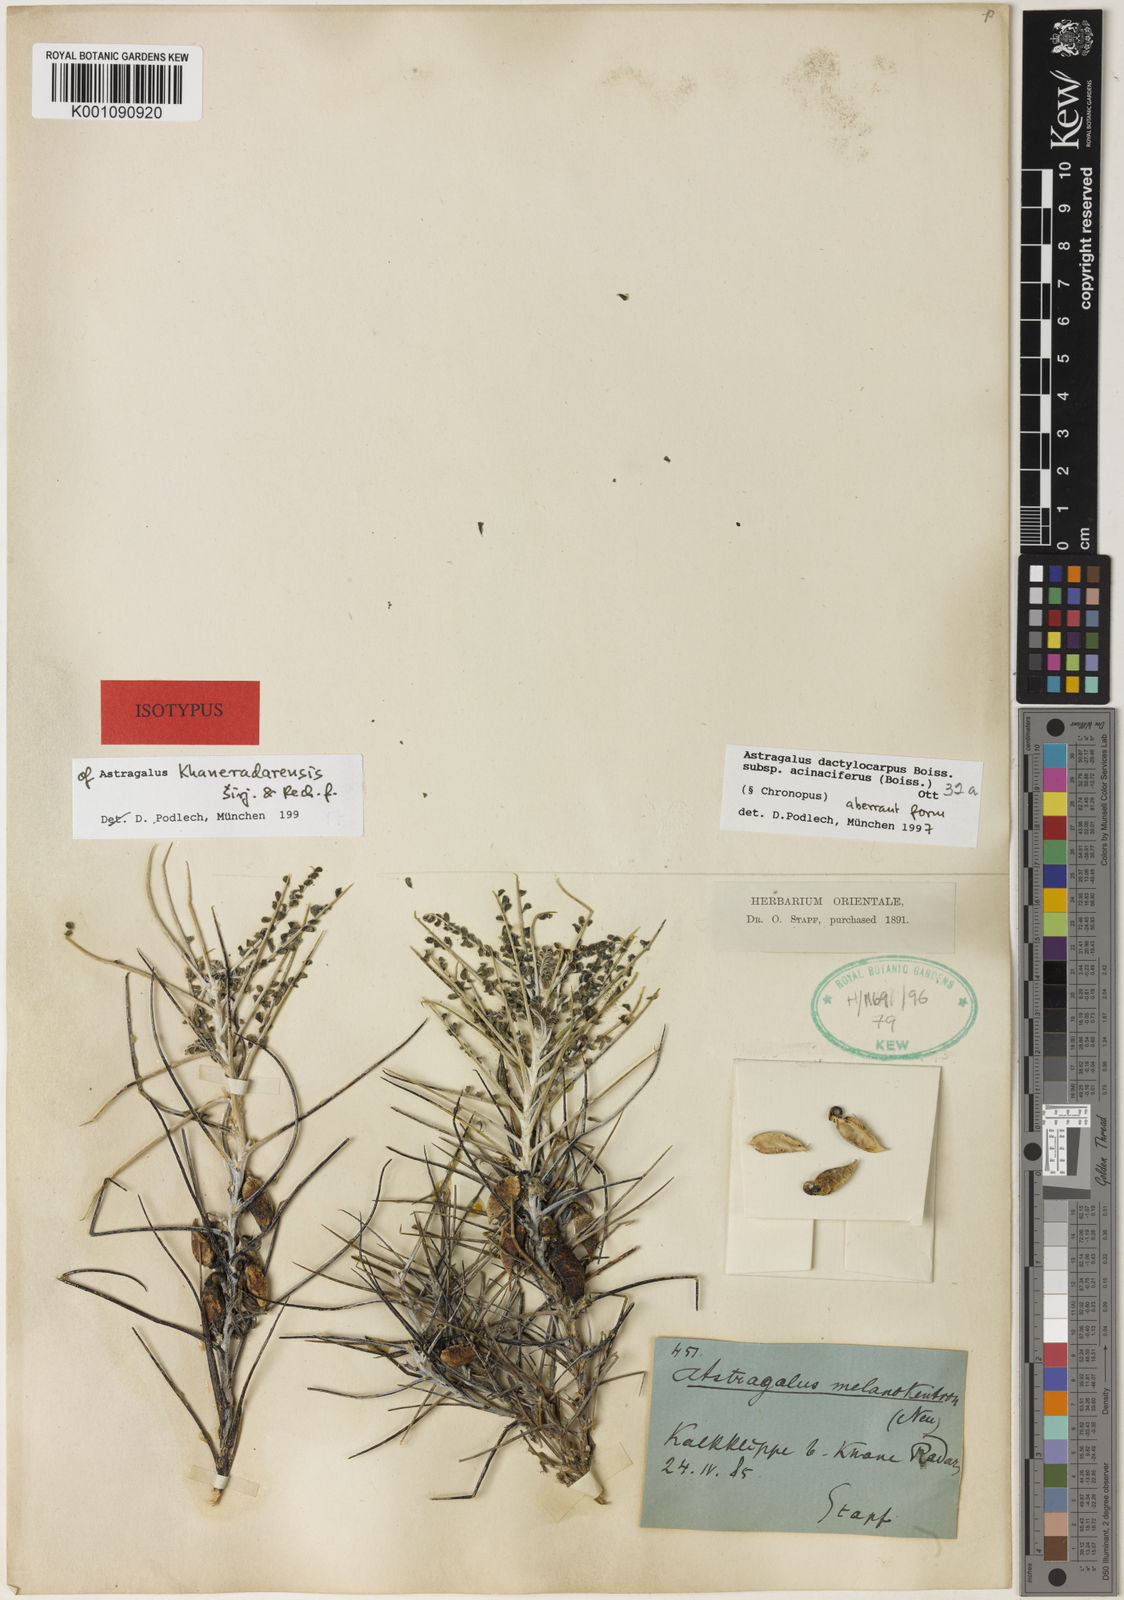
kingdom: Plantae
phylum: Tracheophyta
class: Magnoliopsida
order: Fabales
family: Fabaceae
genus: Astragalus
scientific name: Astragalus
